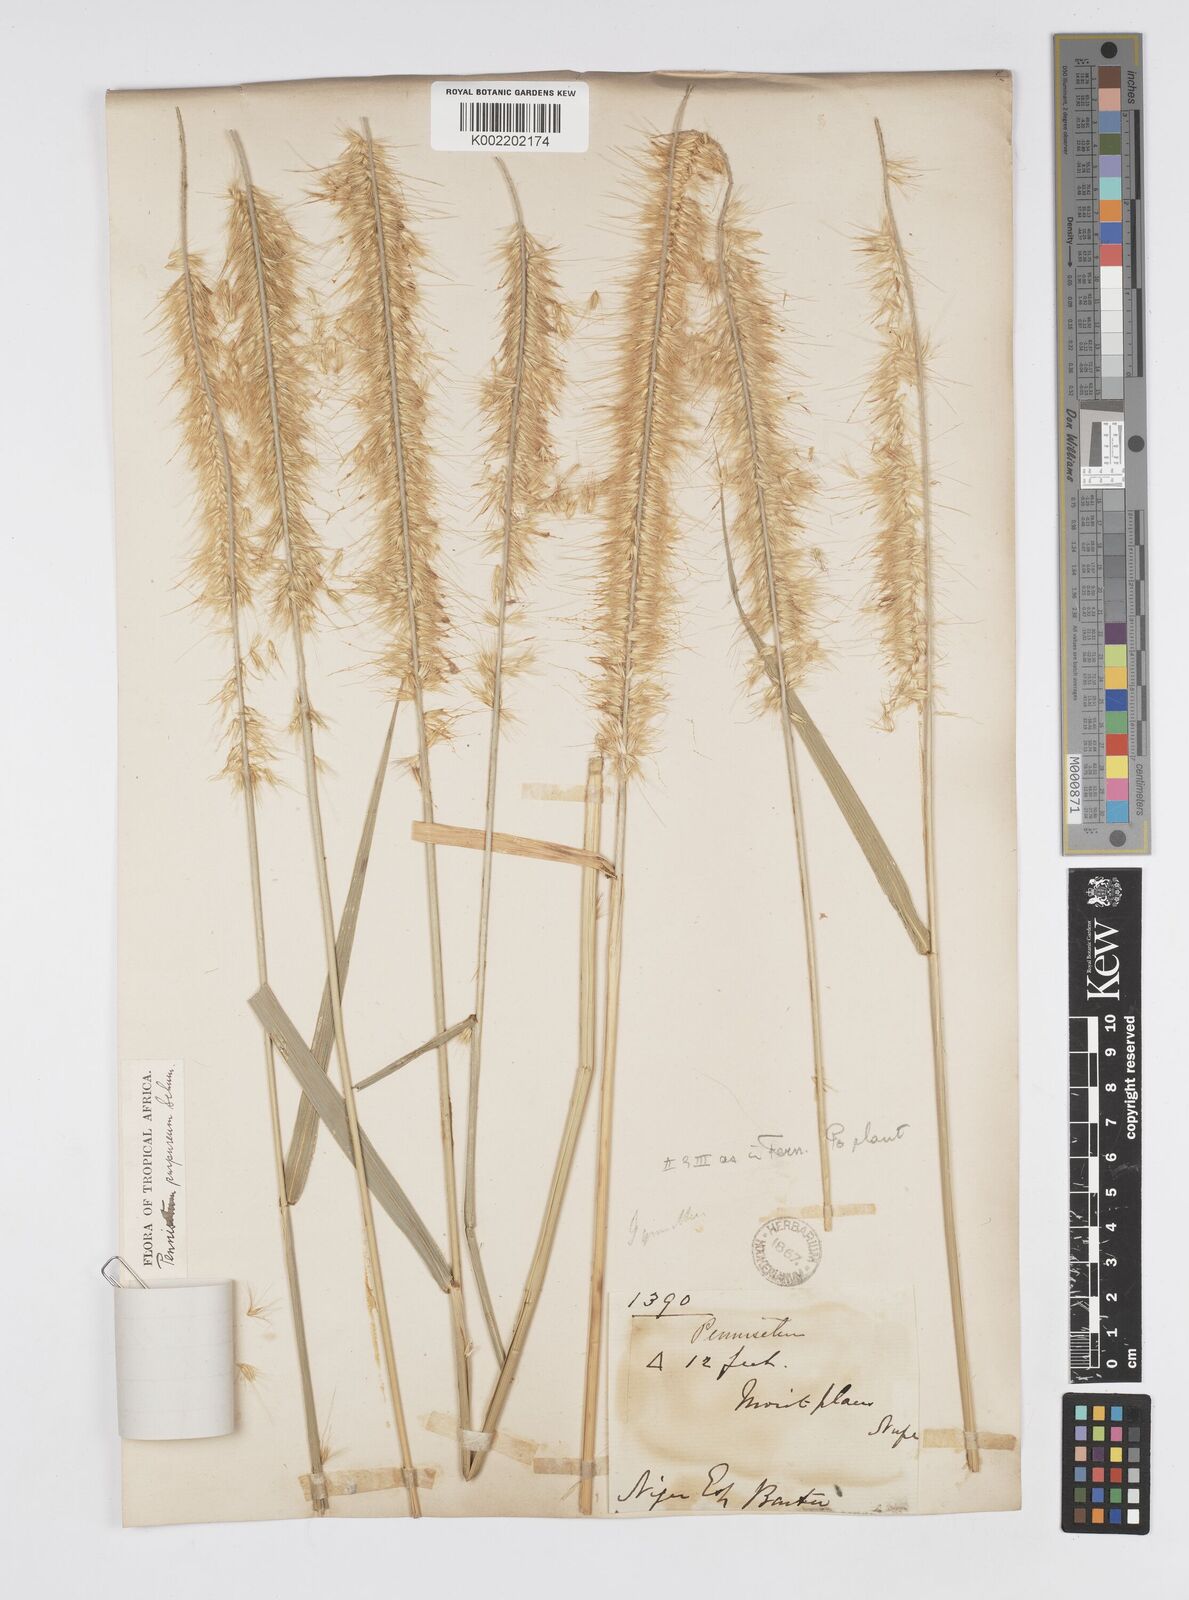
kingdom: Plantae
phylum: Tracheophyta
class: Liliopsida
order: Poales
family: Poaceae
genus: Cenchrus
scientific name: Cenchrus purpureus
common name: Elephant grass
